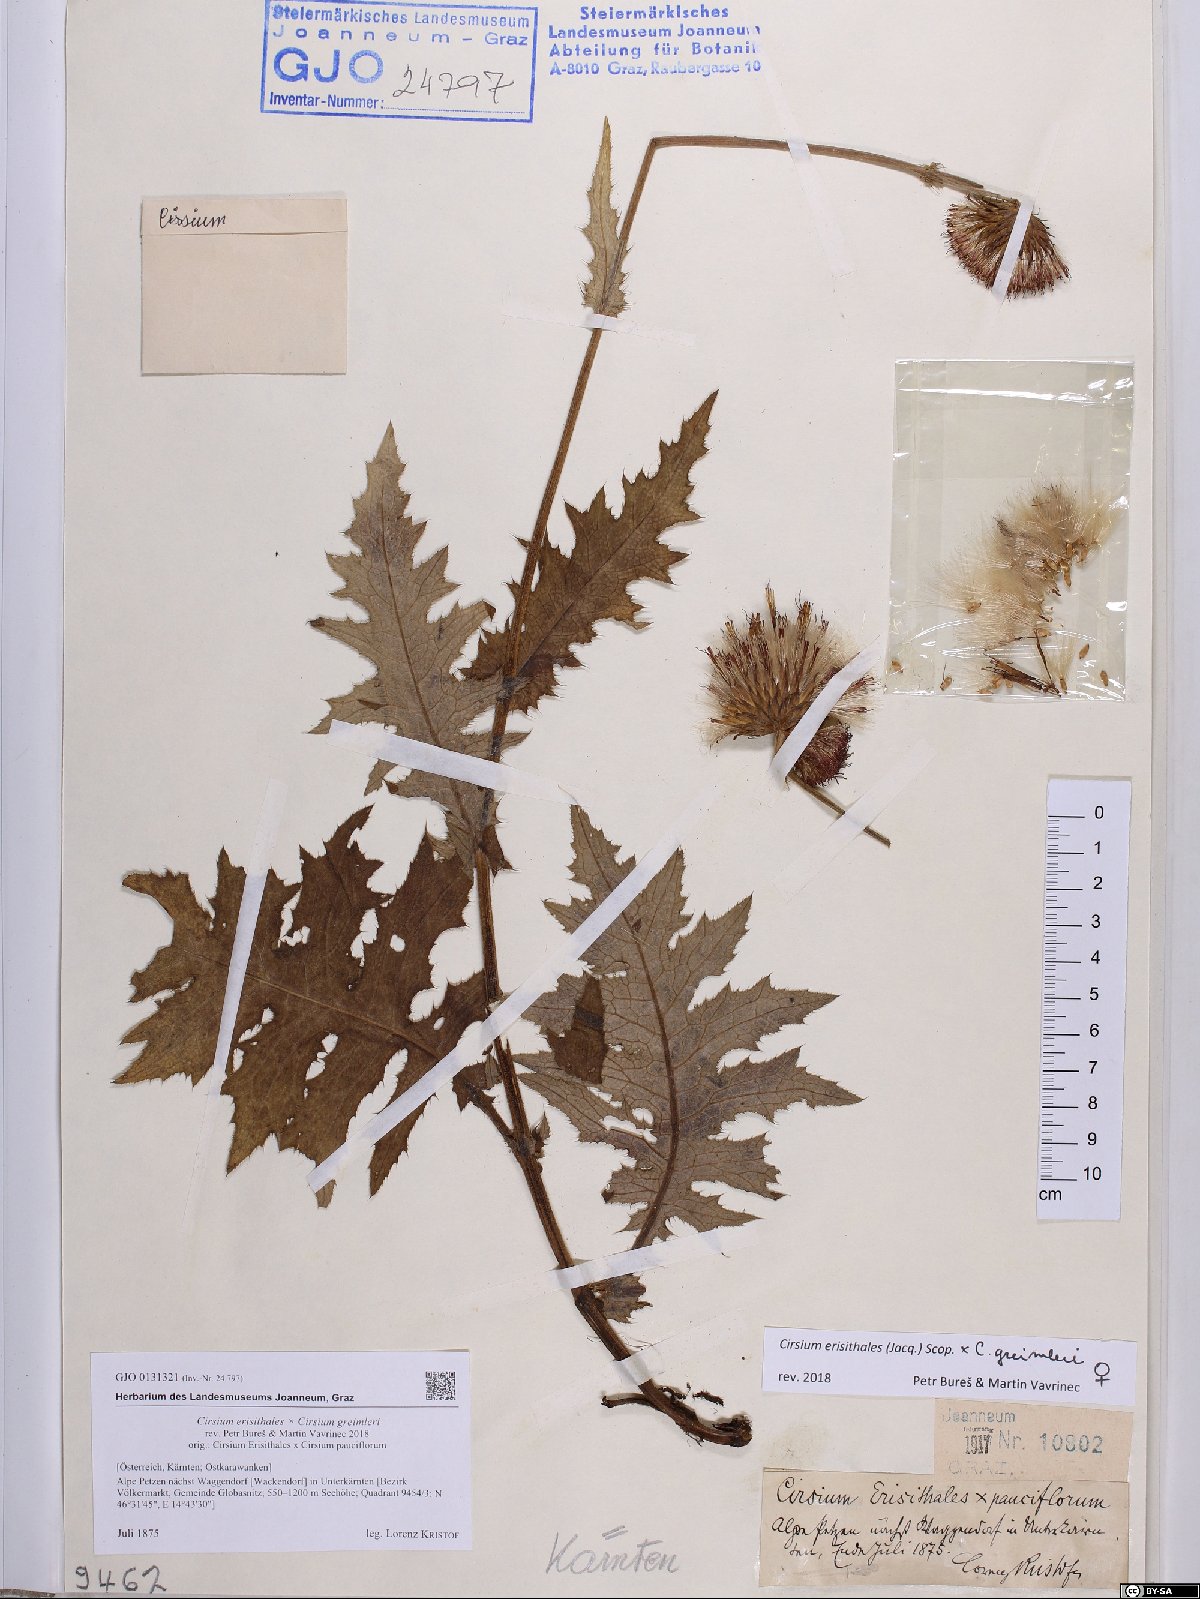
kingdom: Plantae
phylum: Tracheophyta
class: Magnoliopsida
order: Asterales
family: Asteraceae
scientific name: Asteraceae
